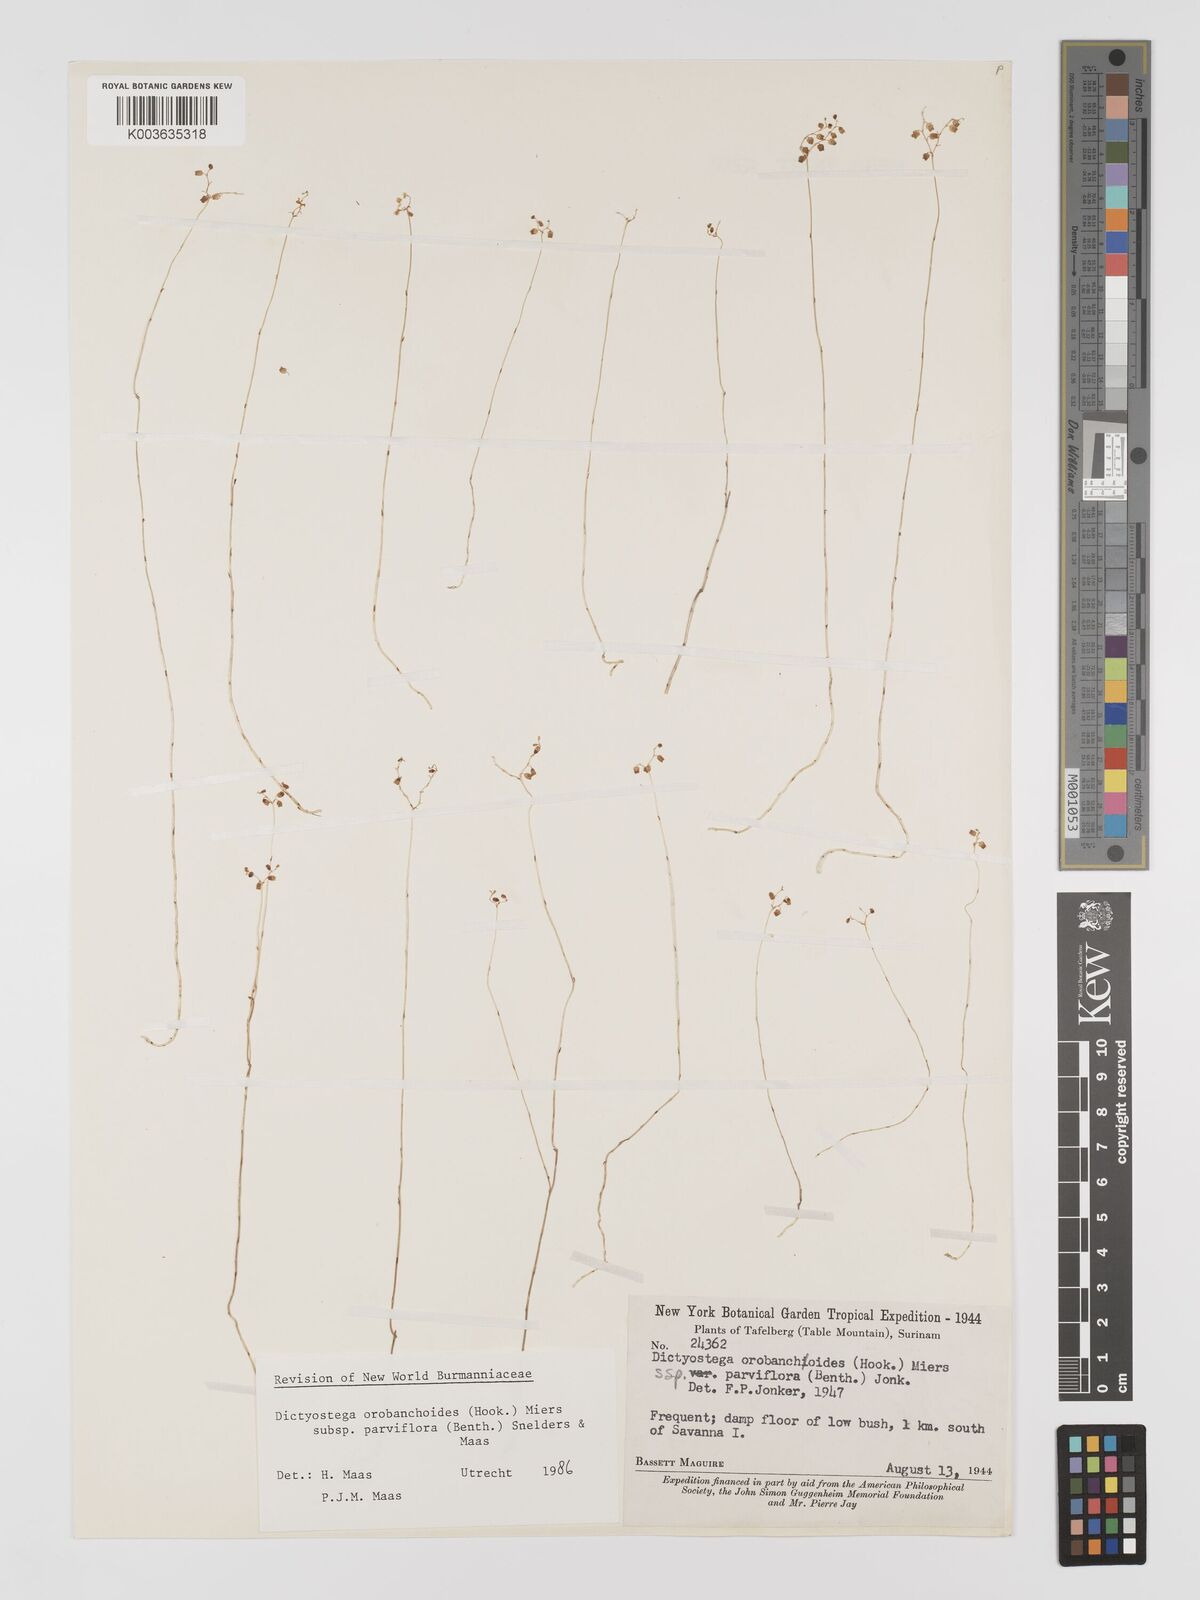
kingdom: Plantae
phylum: Tracheophyta
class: Liliopsida
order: Dioscoreales
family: Burmanniaceae
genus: Dictyostega
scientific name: Dictyostega orobanchoides
